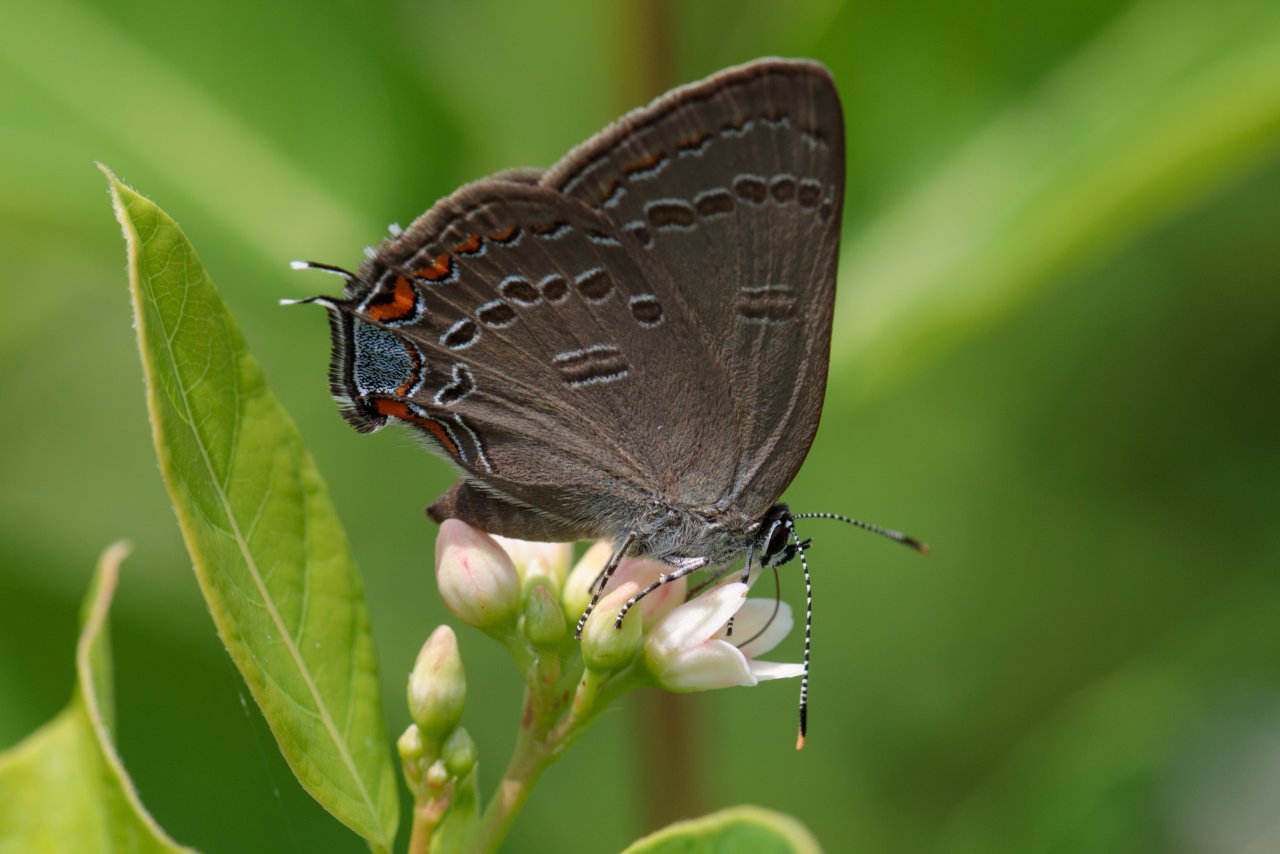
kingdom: Animalia
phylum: Arthropoda
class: Insecta
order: Lepidoptera
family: Lycaenidae
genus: Satyrium
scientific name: Satyrium edwardsii
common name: Edwards' Hairstreak
